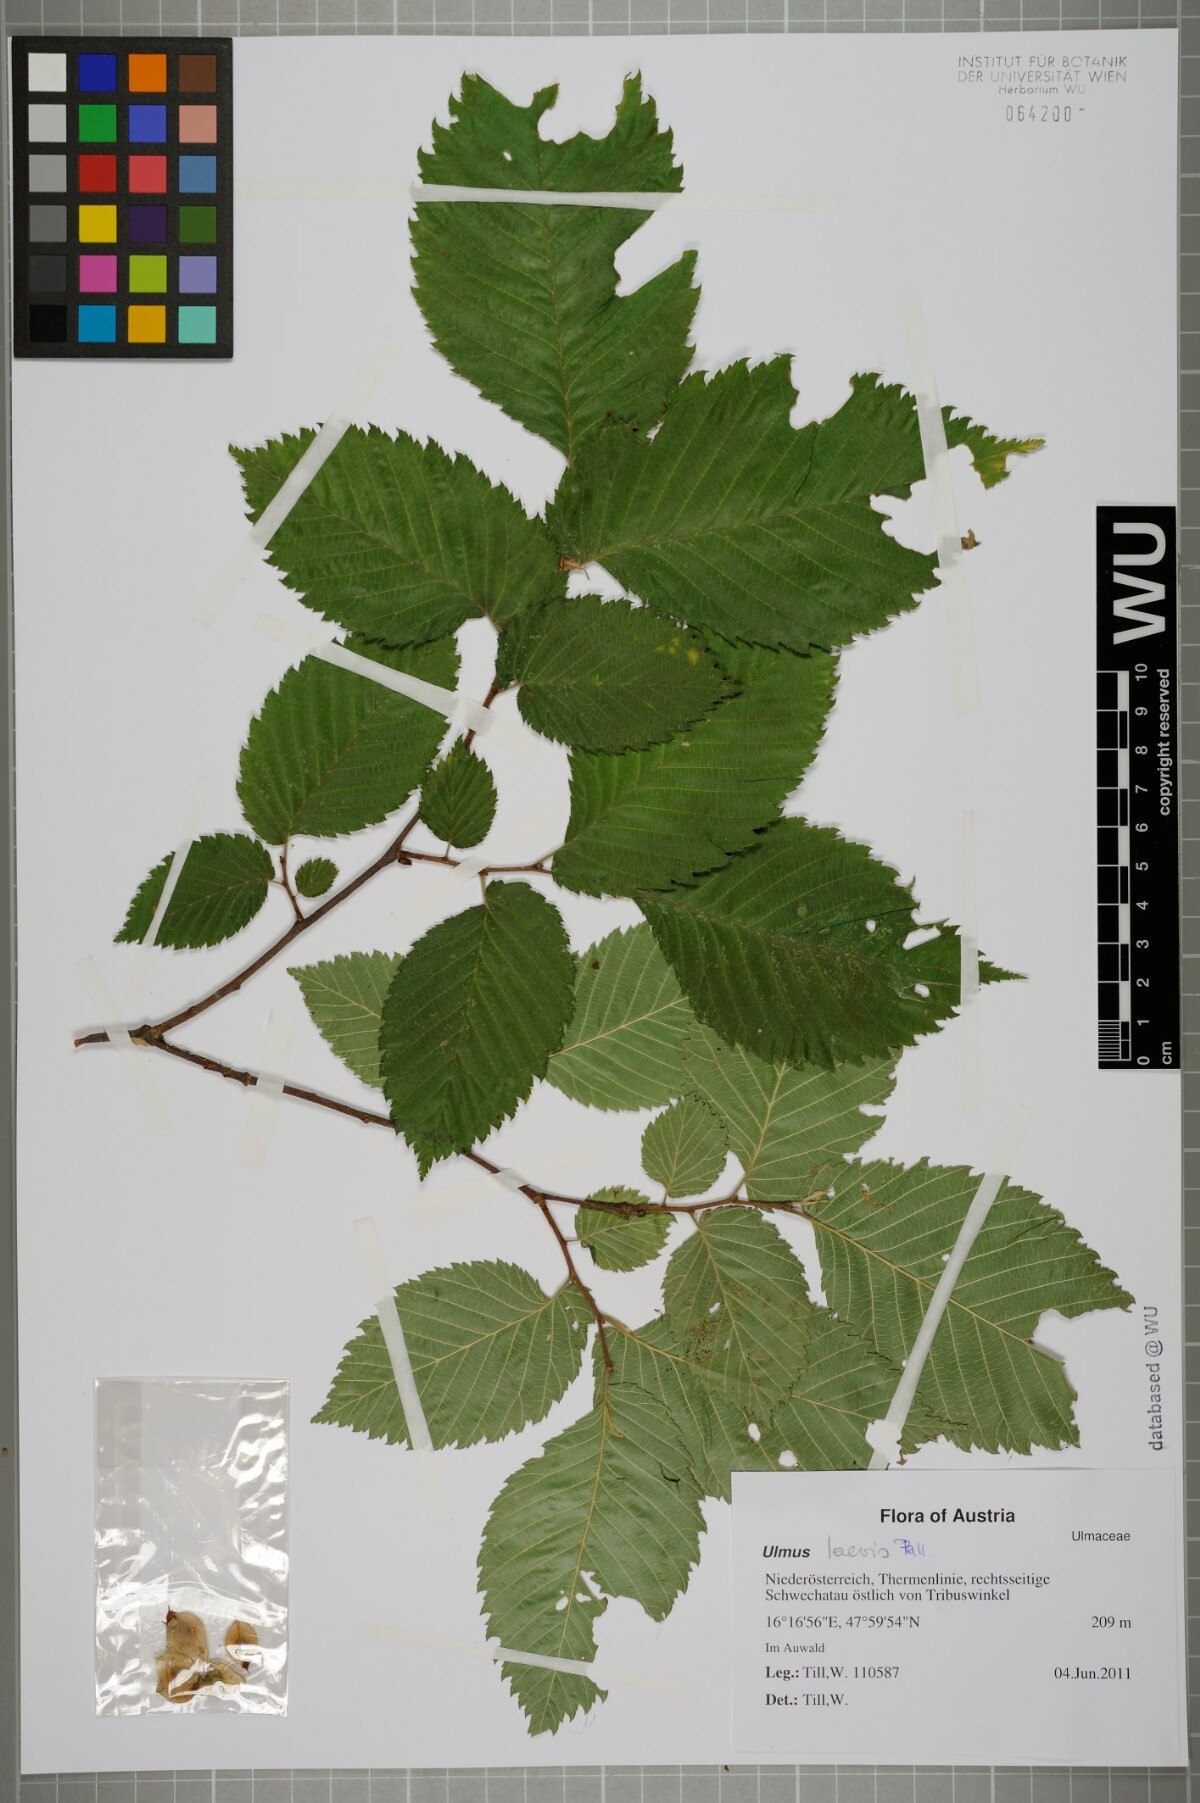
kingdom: Plantae
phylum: Tracheophyta
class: Magnoliopsida
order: Rosales
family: Ulmaceae
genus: Ulmus
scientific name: Ulmus laevis
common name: European white-elm
